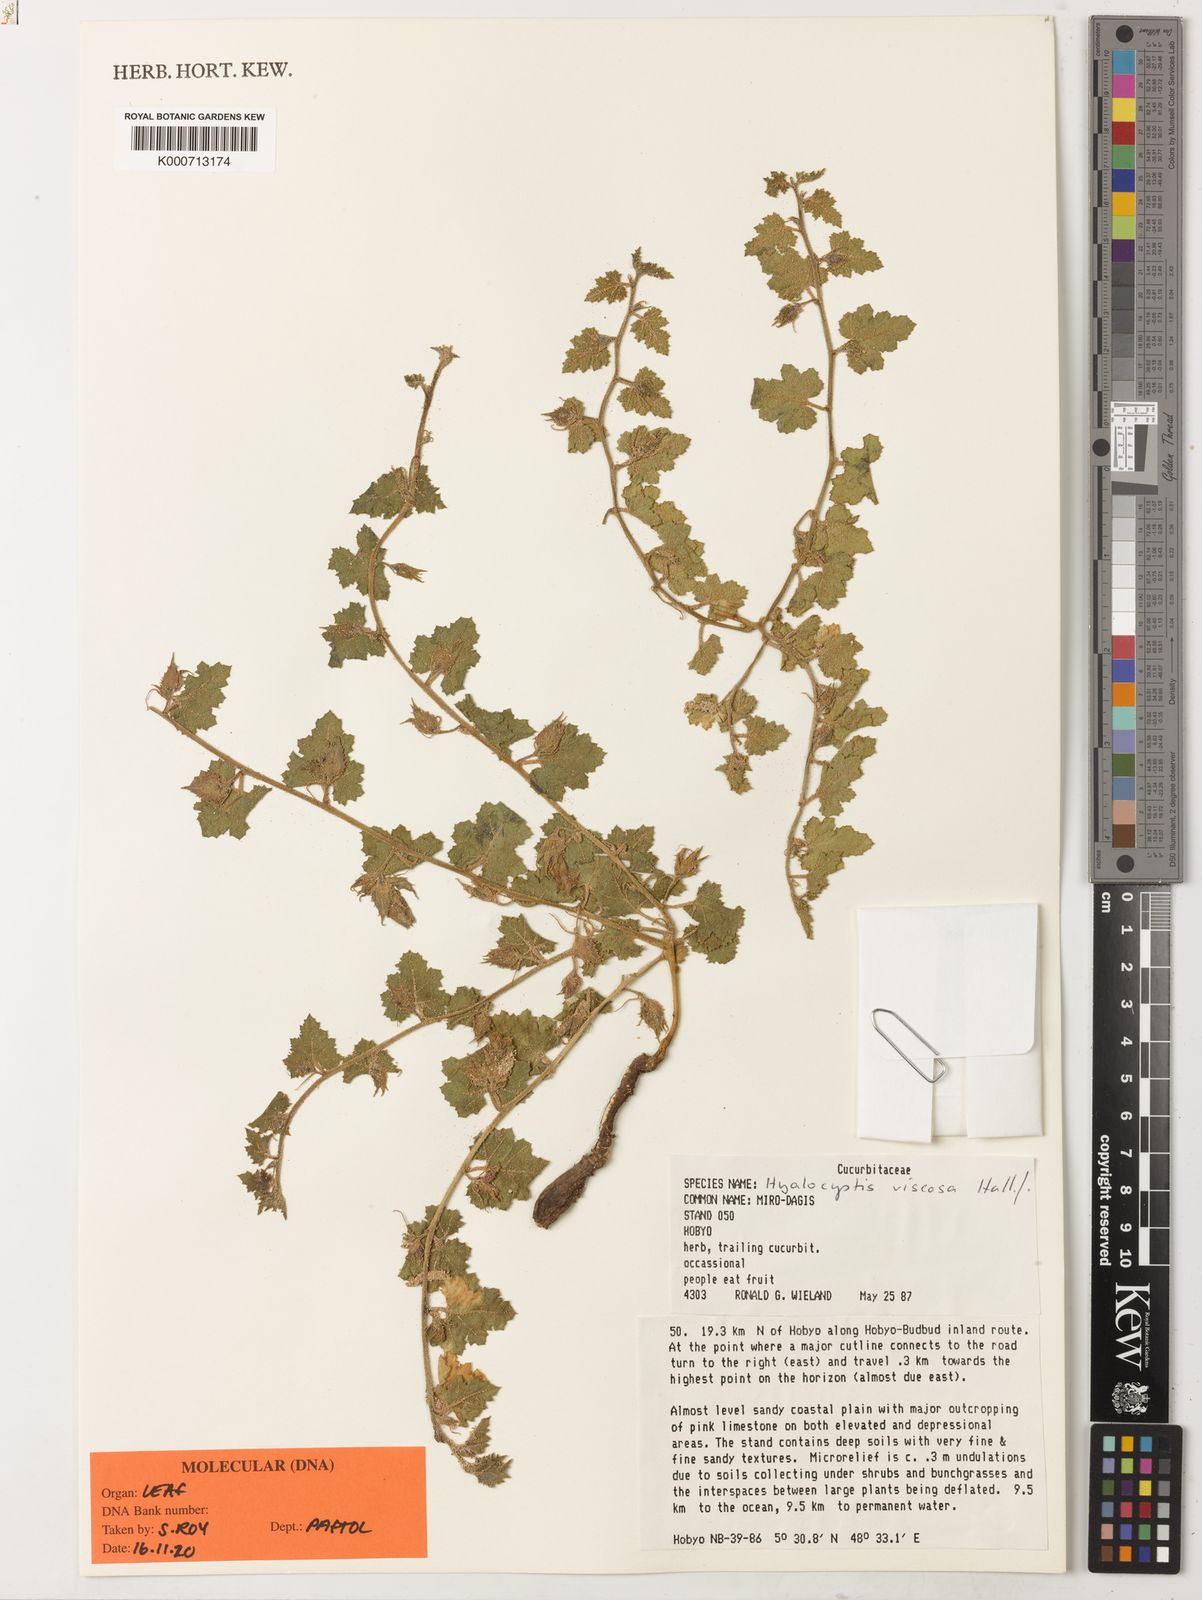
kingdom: Plantae
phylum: Tracheophyta
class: Magnoliopsida
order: Solanales
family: Convolvulaceae
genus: Hyalocystis
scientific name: Hyalocystis viscosa
